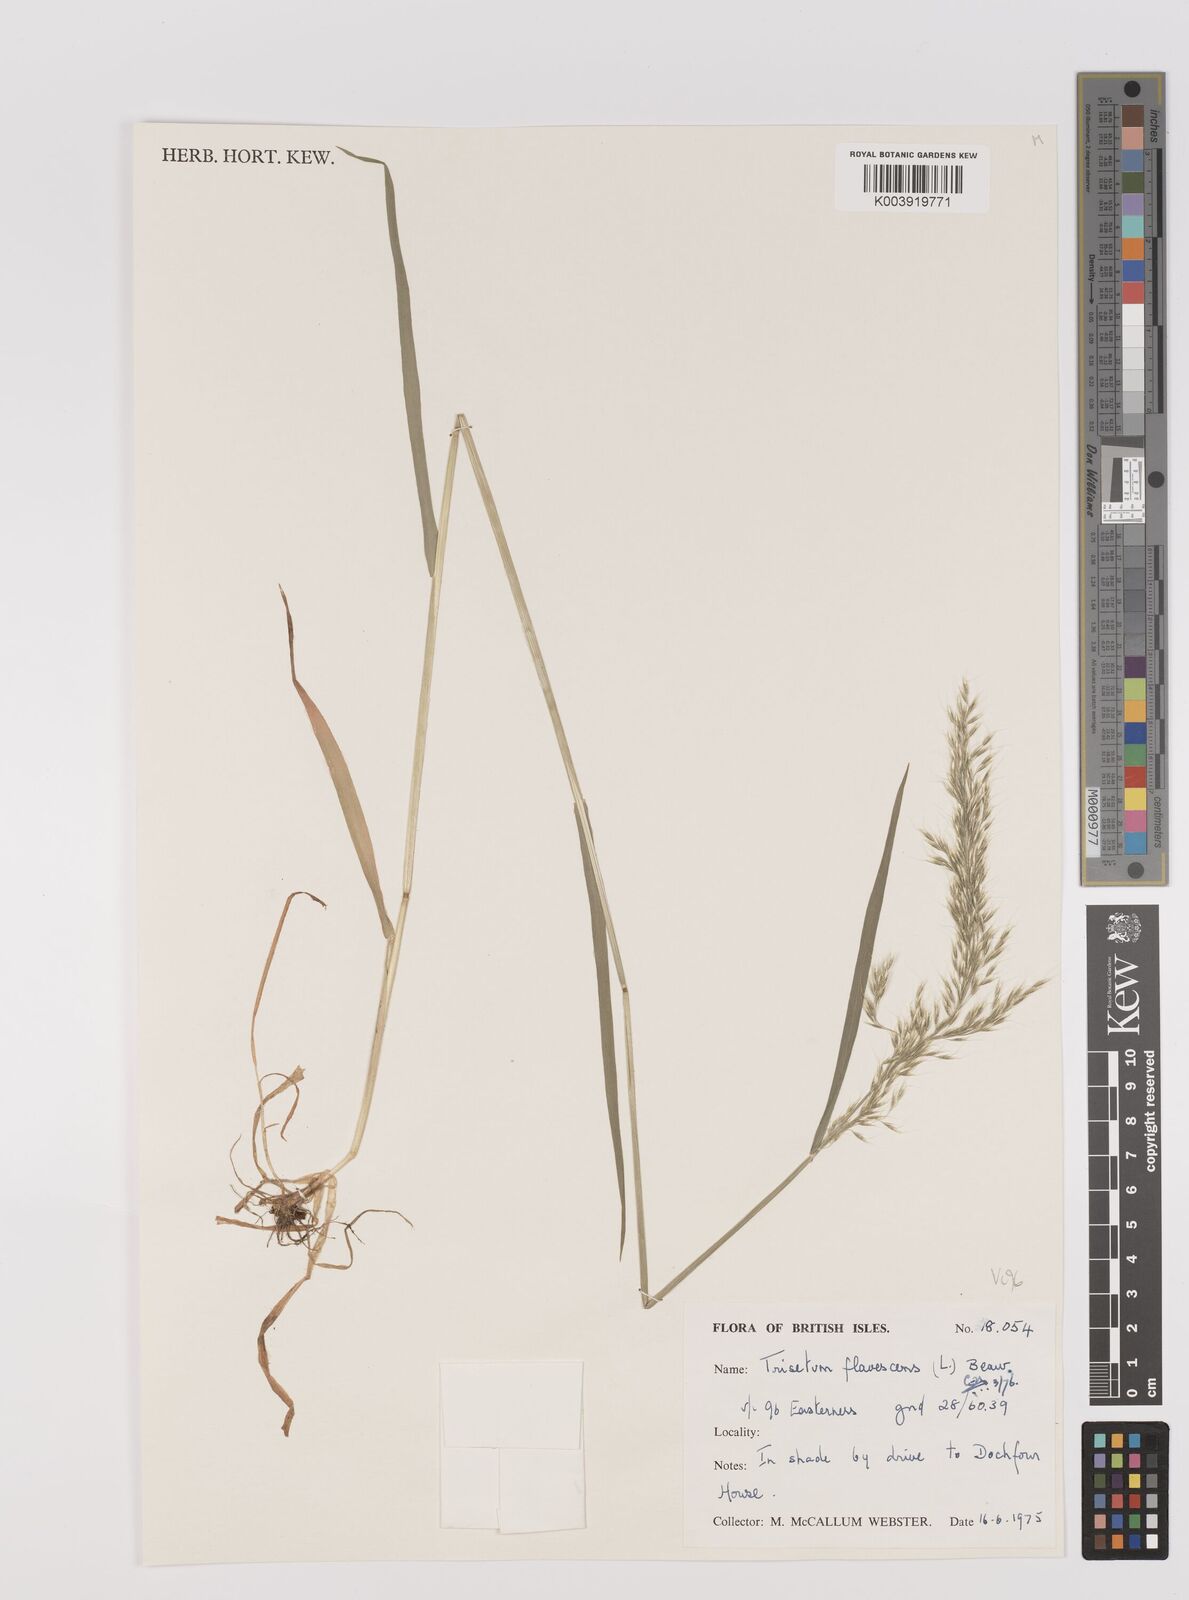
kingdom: Plantae
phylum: Tracheophyta
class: Liliopsida
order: Poales
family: Poaceae
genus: Trisetum
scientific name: Trisetum flavescens
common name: Yellow oat-grass
